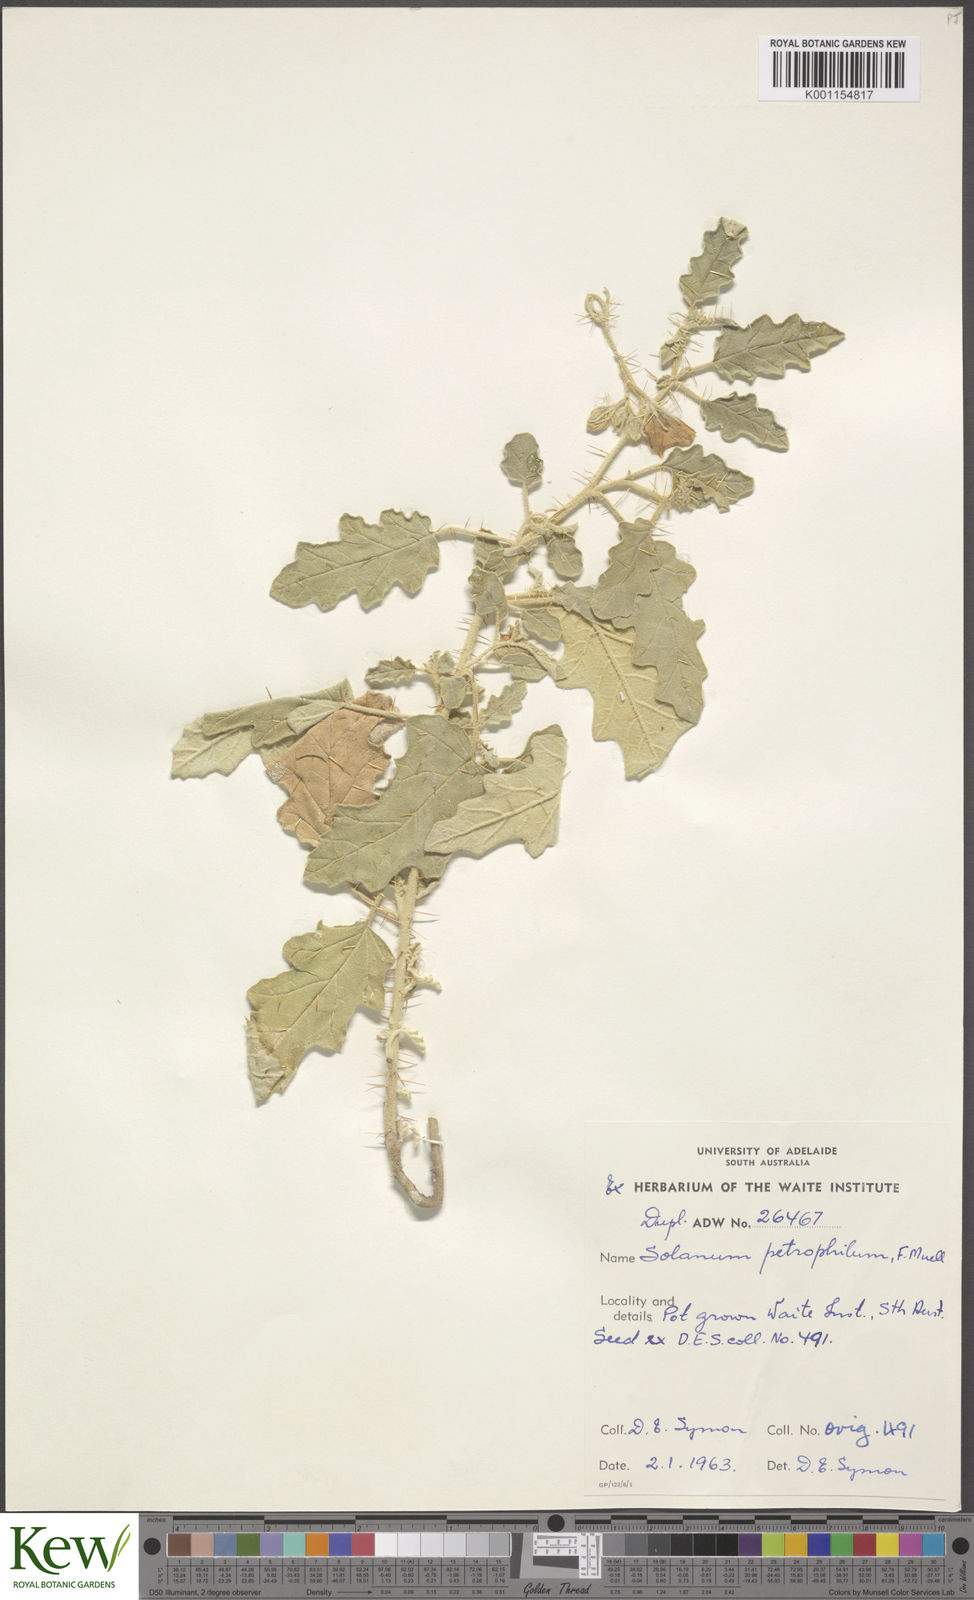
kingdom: Plantae
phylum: Tracheophyta
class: Magnoliopsida
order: Solanales
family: Solanaceae
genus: Solanum
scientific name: Solanum petrophilum
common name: Rock nightshade
